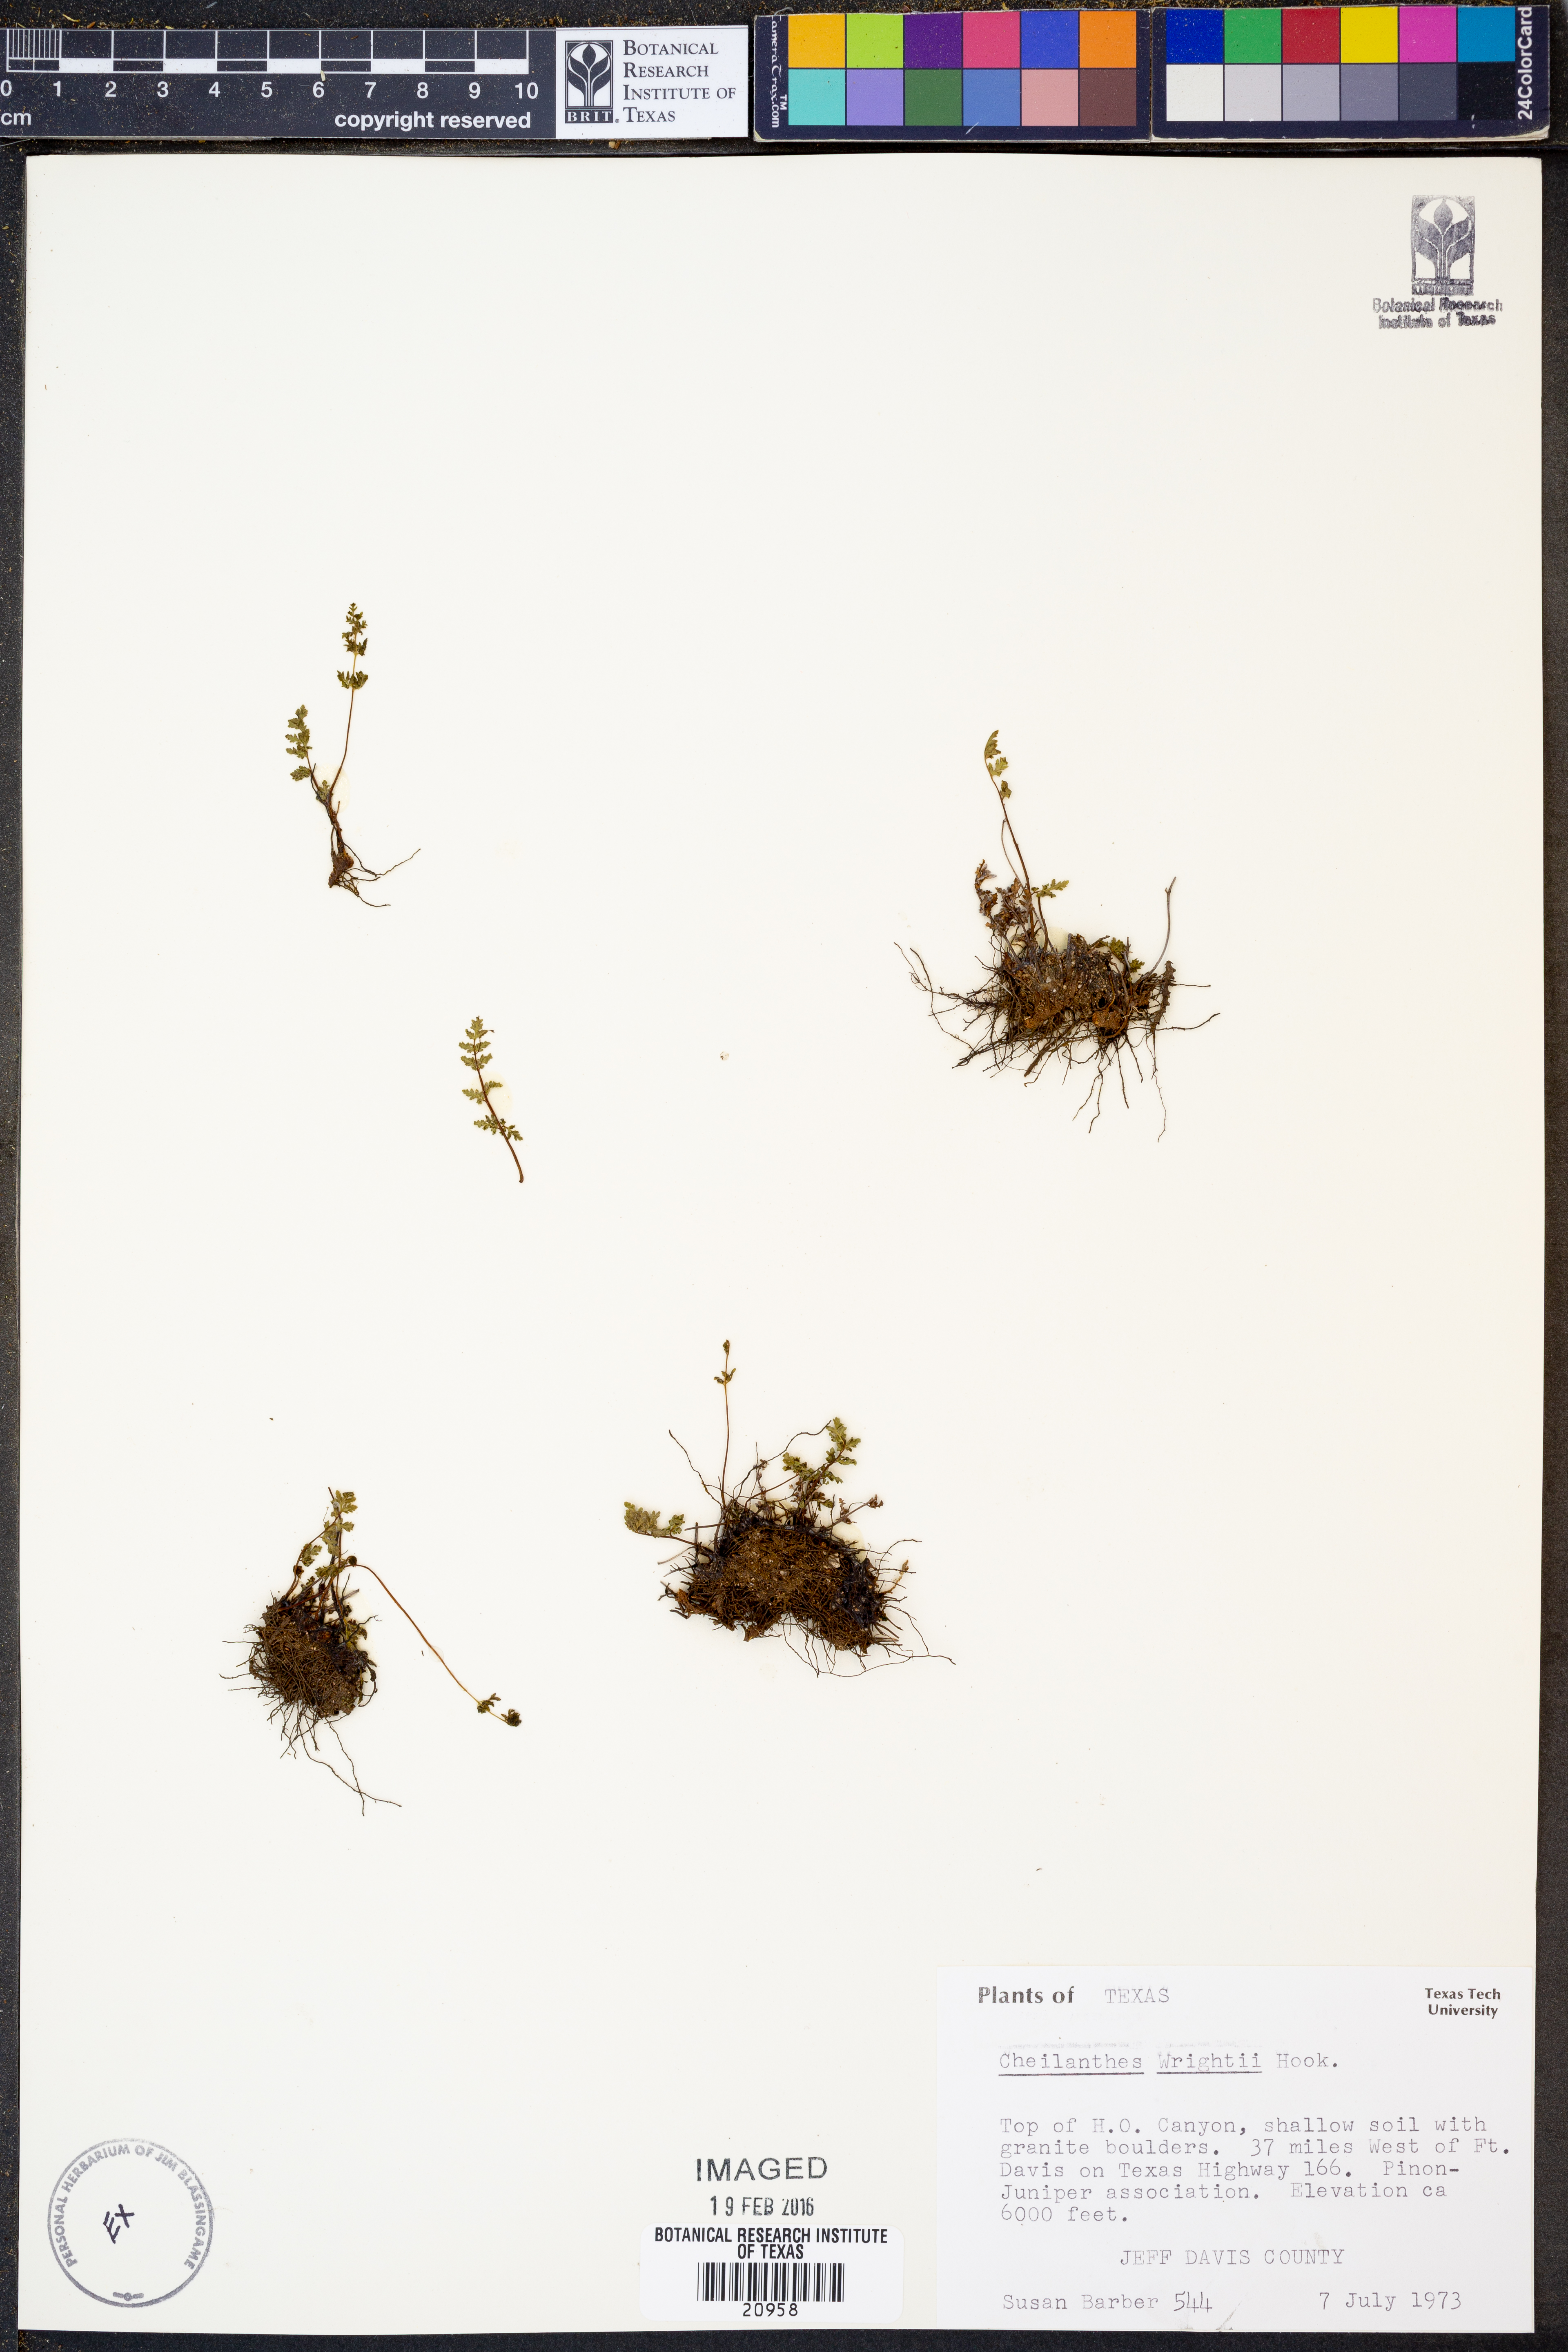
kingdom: Plantae
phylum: Tracheophyta
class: Polypodiopsida
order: Polypodiales
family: Pteridaceae
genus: Myriopteris
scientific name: Myriopteris wrightii
